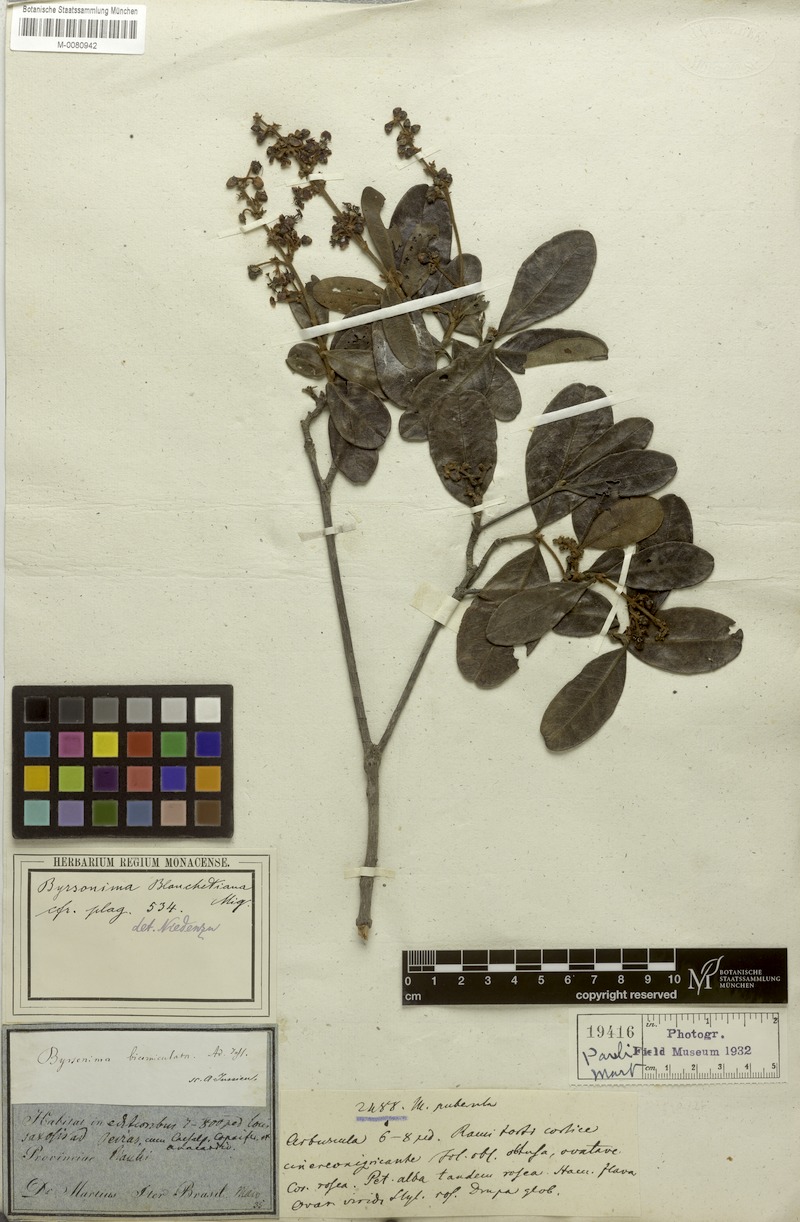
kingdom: Plantae
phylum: Tracheophyta
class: Magnoliopsida
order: Malpighiales
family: Malpighiaceae
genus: Byrsonima
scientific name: Byrsonima bicorniculata
